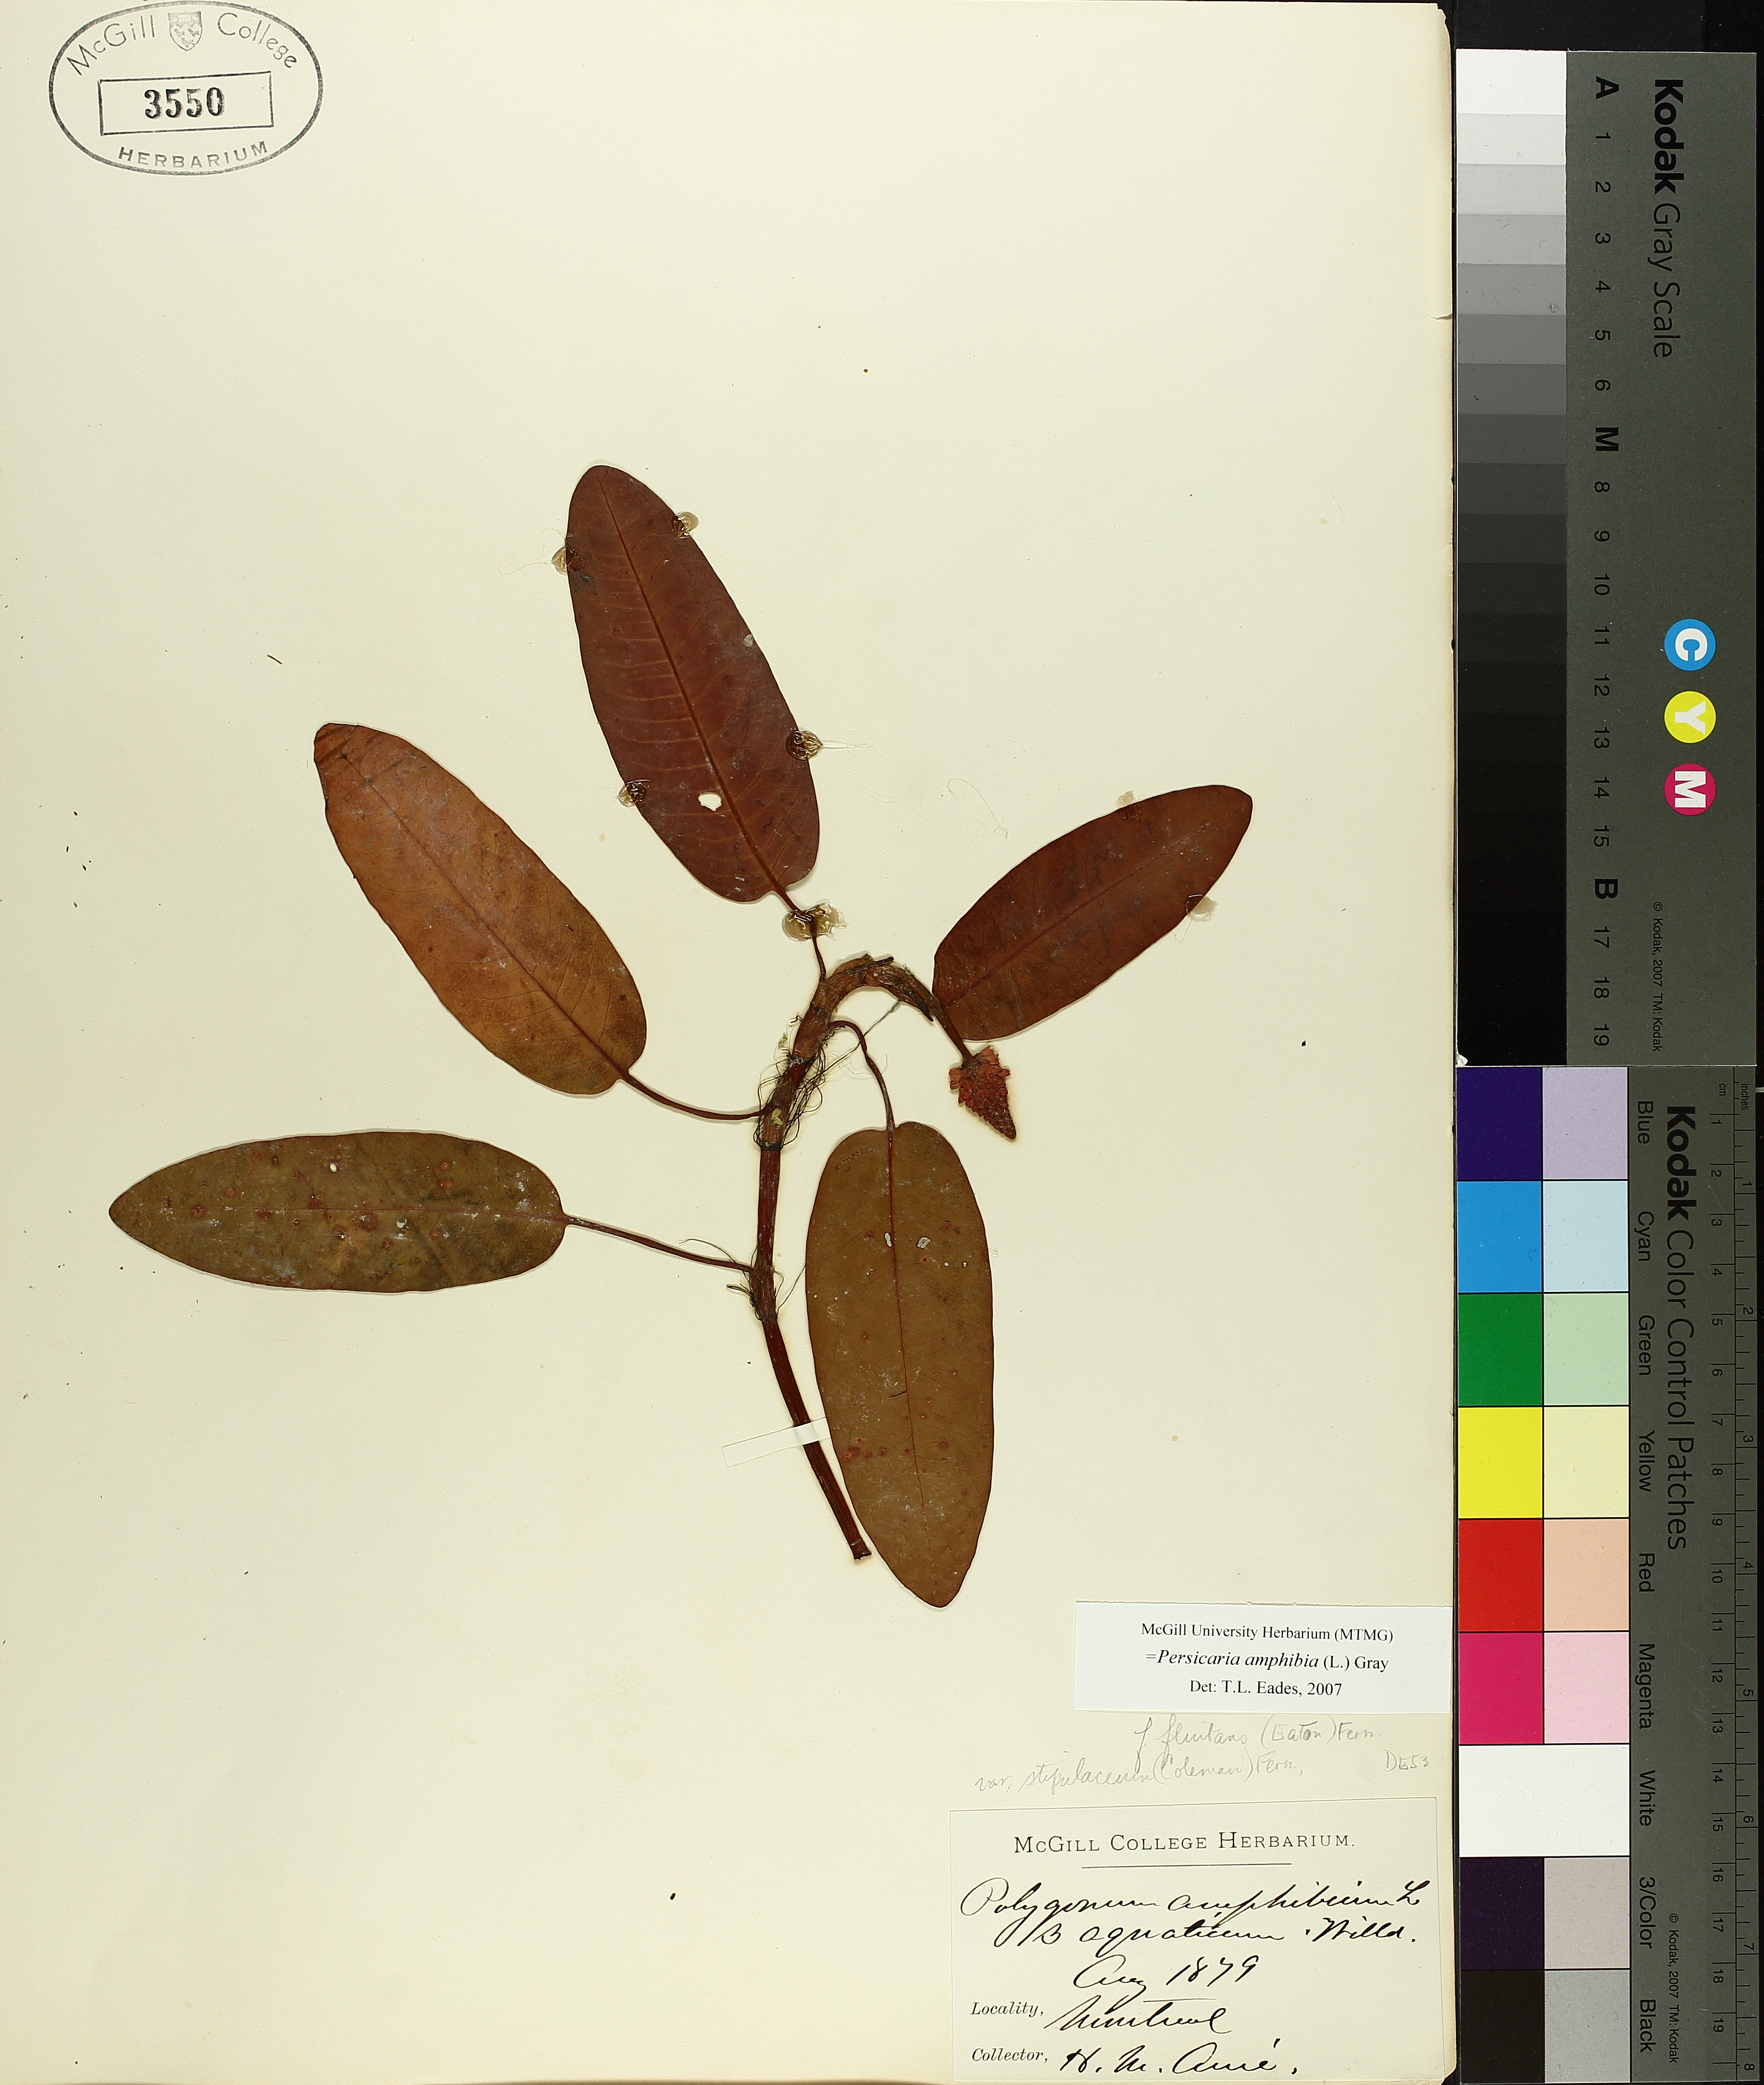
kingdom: Plantae
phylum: Tracheophyta
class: Magnoliopsida
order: Caryophyllales
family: Polygonaceae
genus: Persicaria
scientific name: Persicaria amphibia
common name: Amphibious bistort
